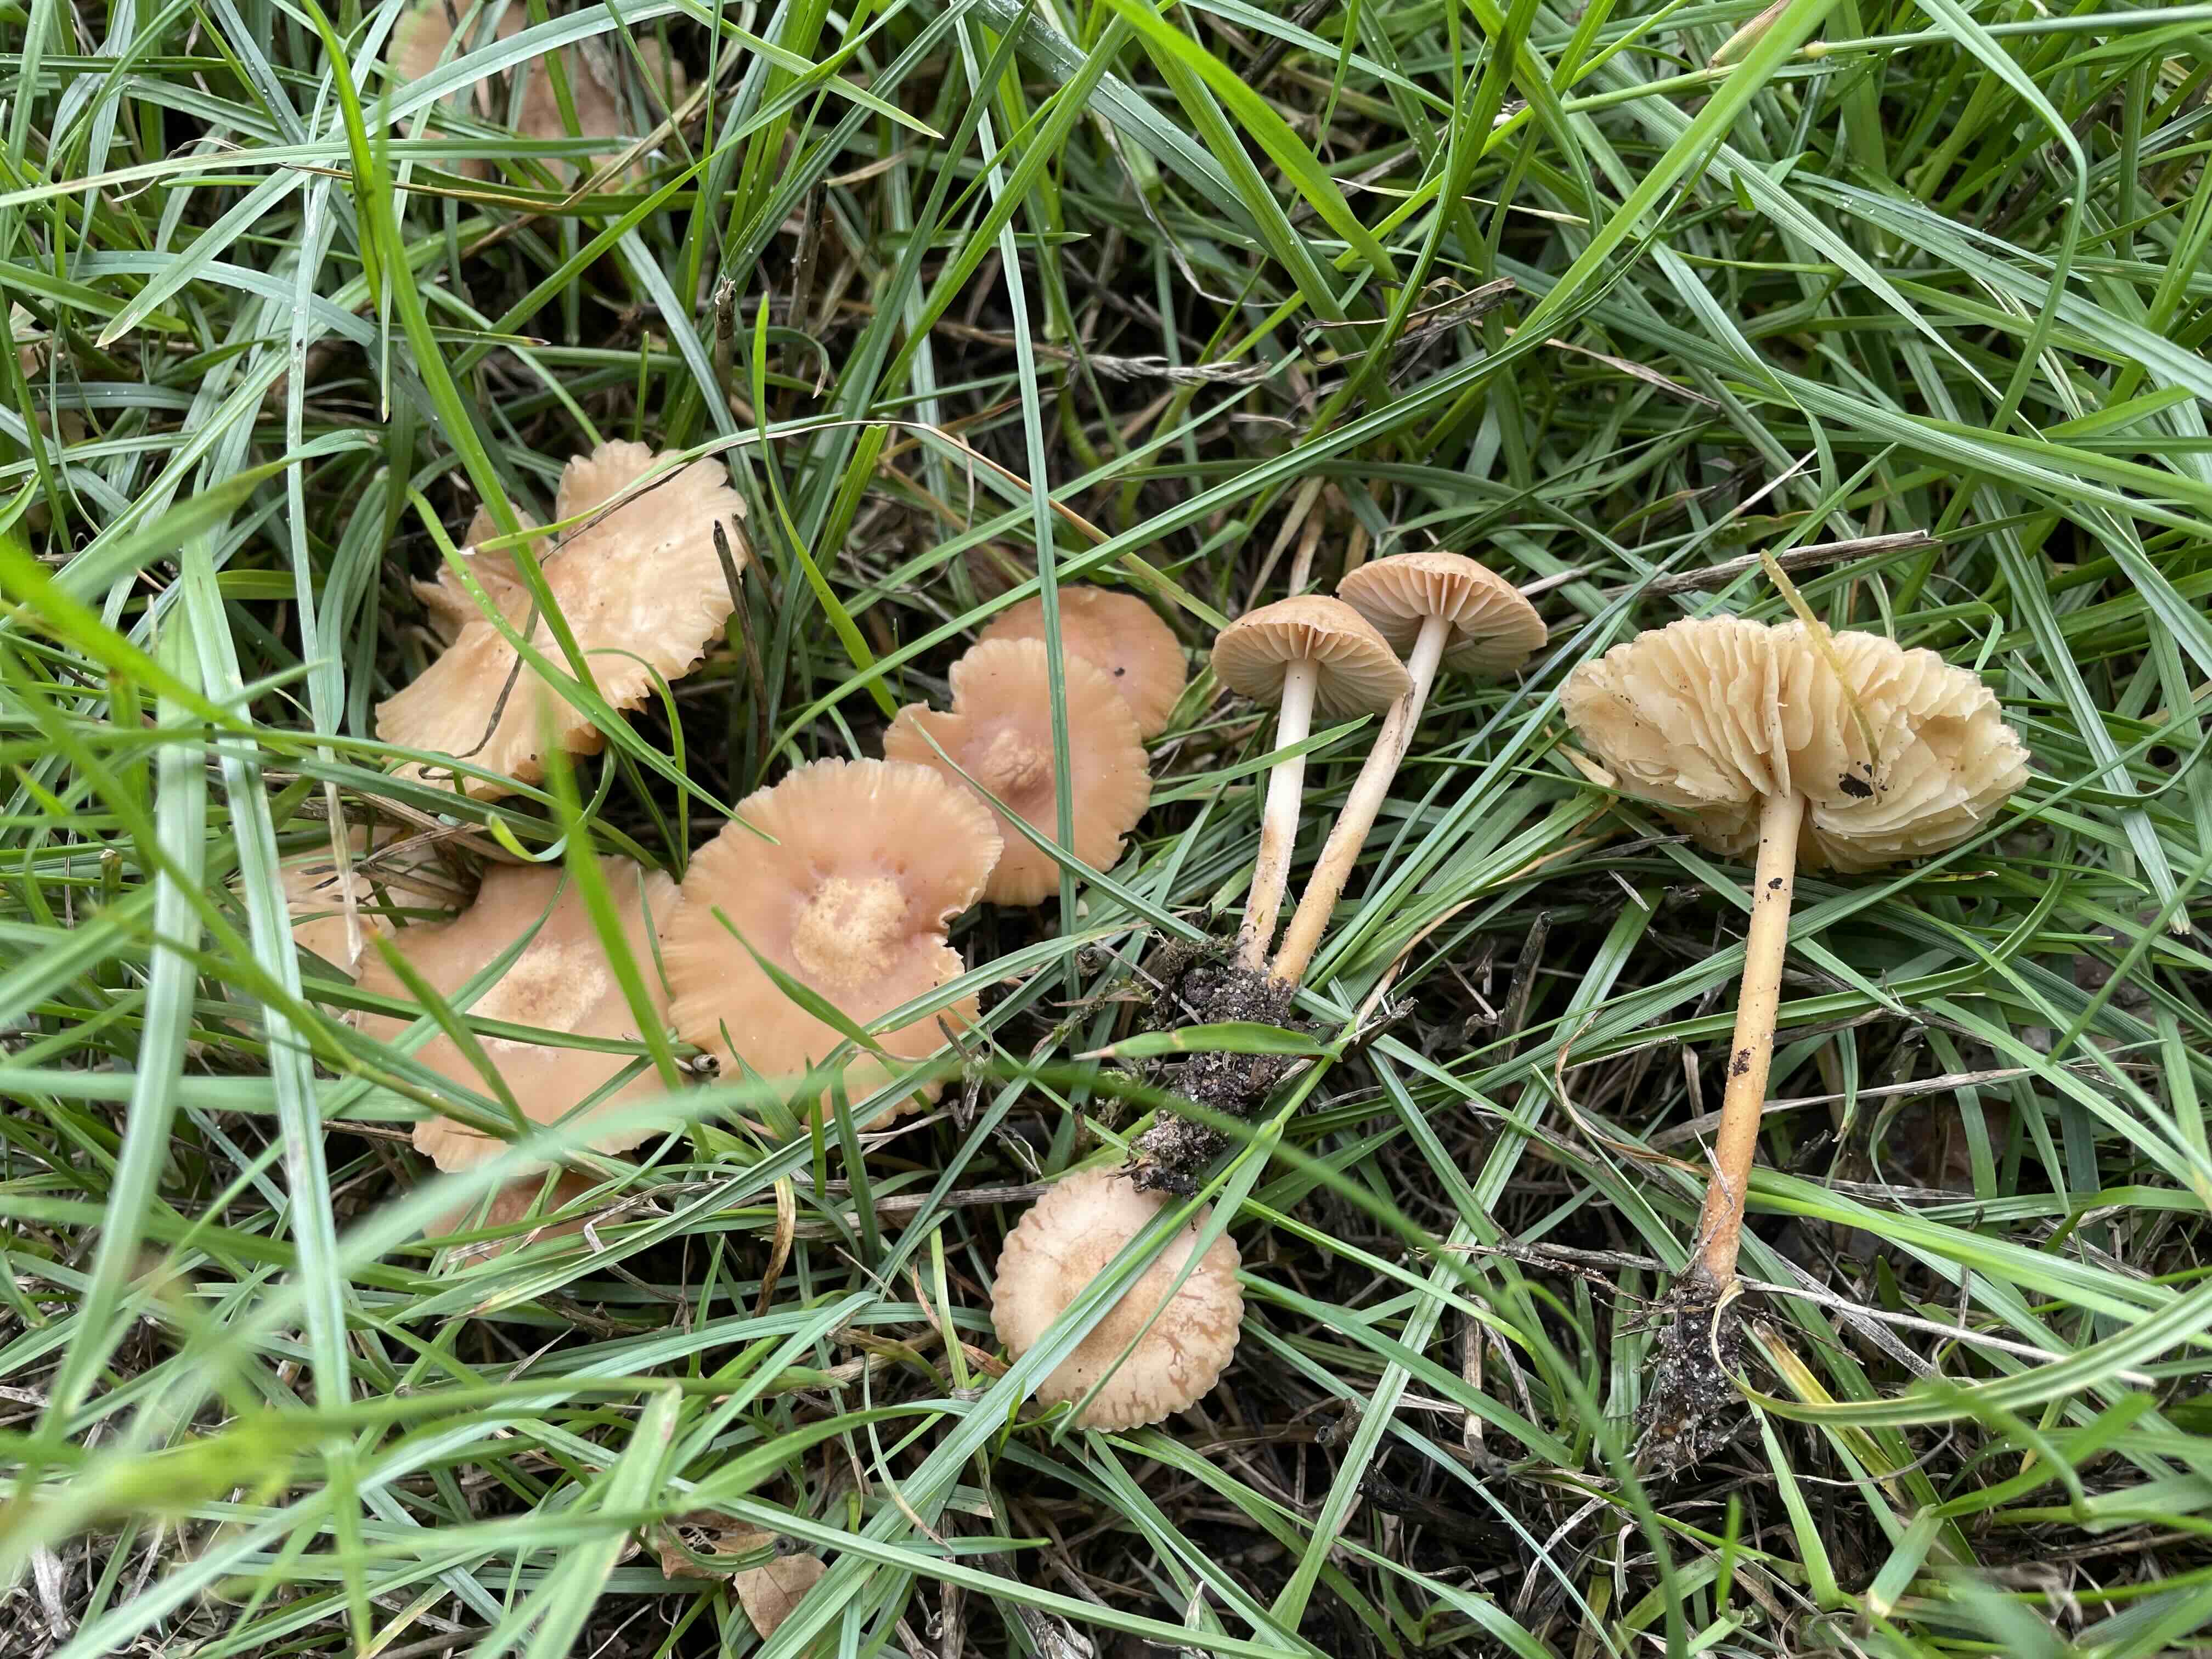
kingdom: Fungi
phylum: Basidiomycota
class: Agaricomycetes
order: Agaricales
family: Marasmiaceae
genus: Marasmius
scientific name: Marasmius oreades
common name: elledans-bruskhat
